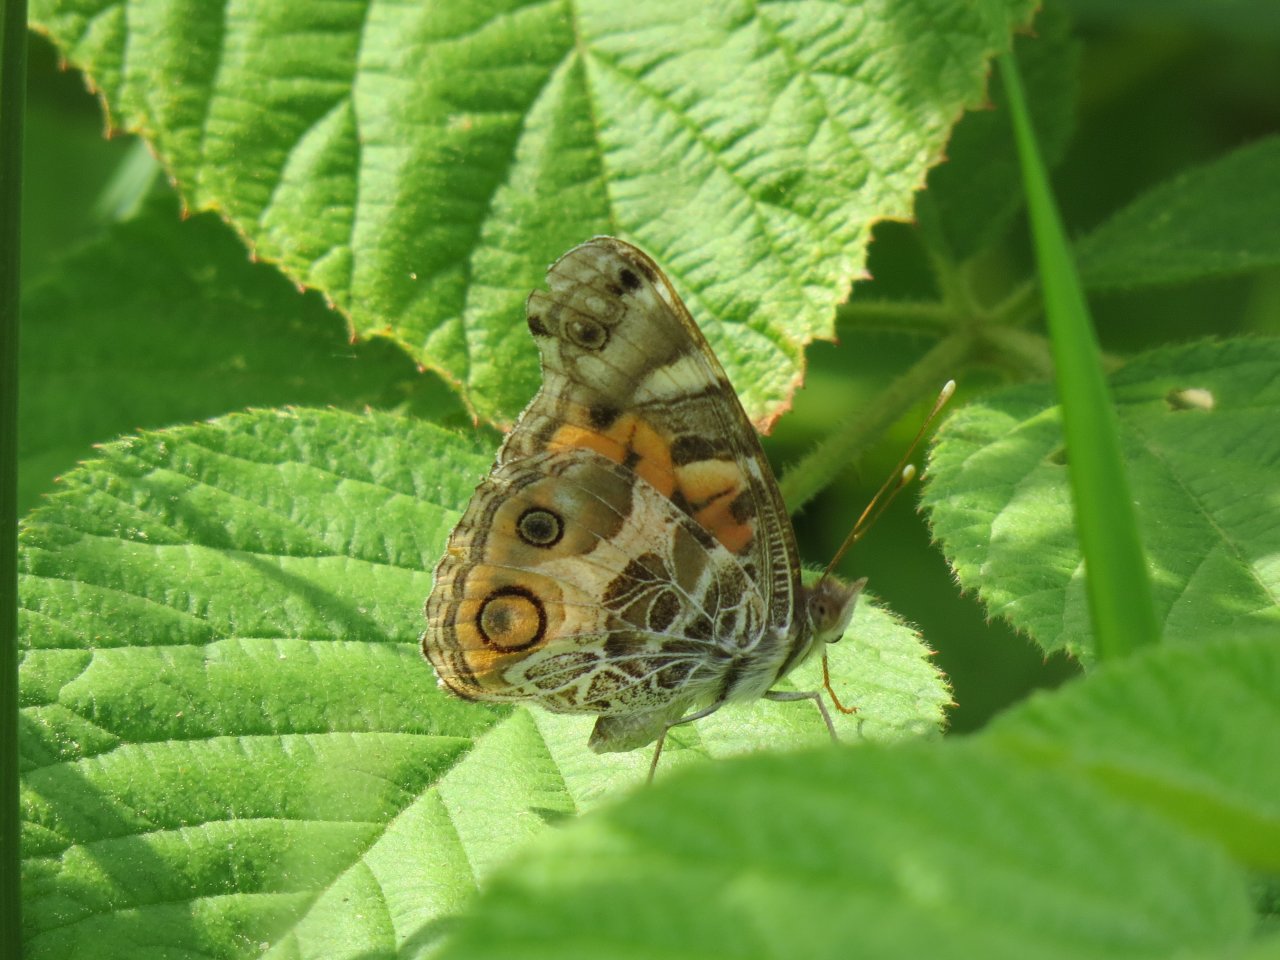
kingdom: Animalia
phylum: Arthropoda
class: Insecta
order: Lepidoptera
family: Nymphalidae
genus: Vanessa
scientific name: Vanessa virginiensis
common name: American Lady
